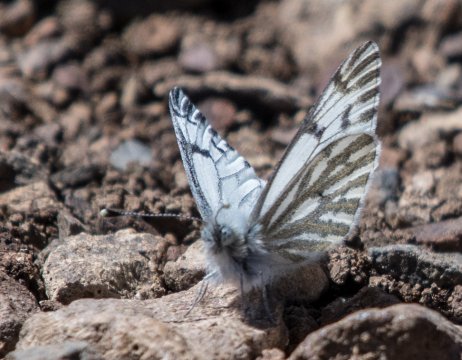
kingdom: Animalia
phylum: Arthropoda
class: Insecta
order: Lepidoptera
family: Pieridae
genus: Pontia
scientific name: Pontia occidentalis
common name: Western White
